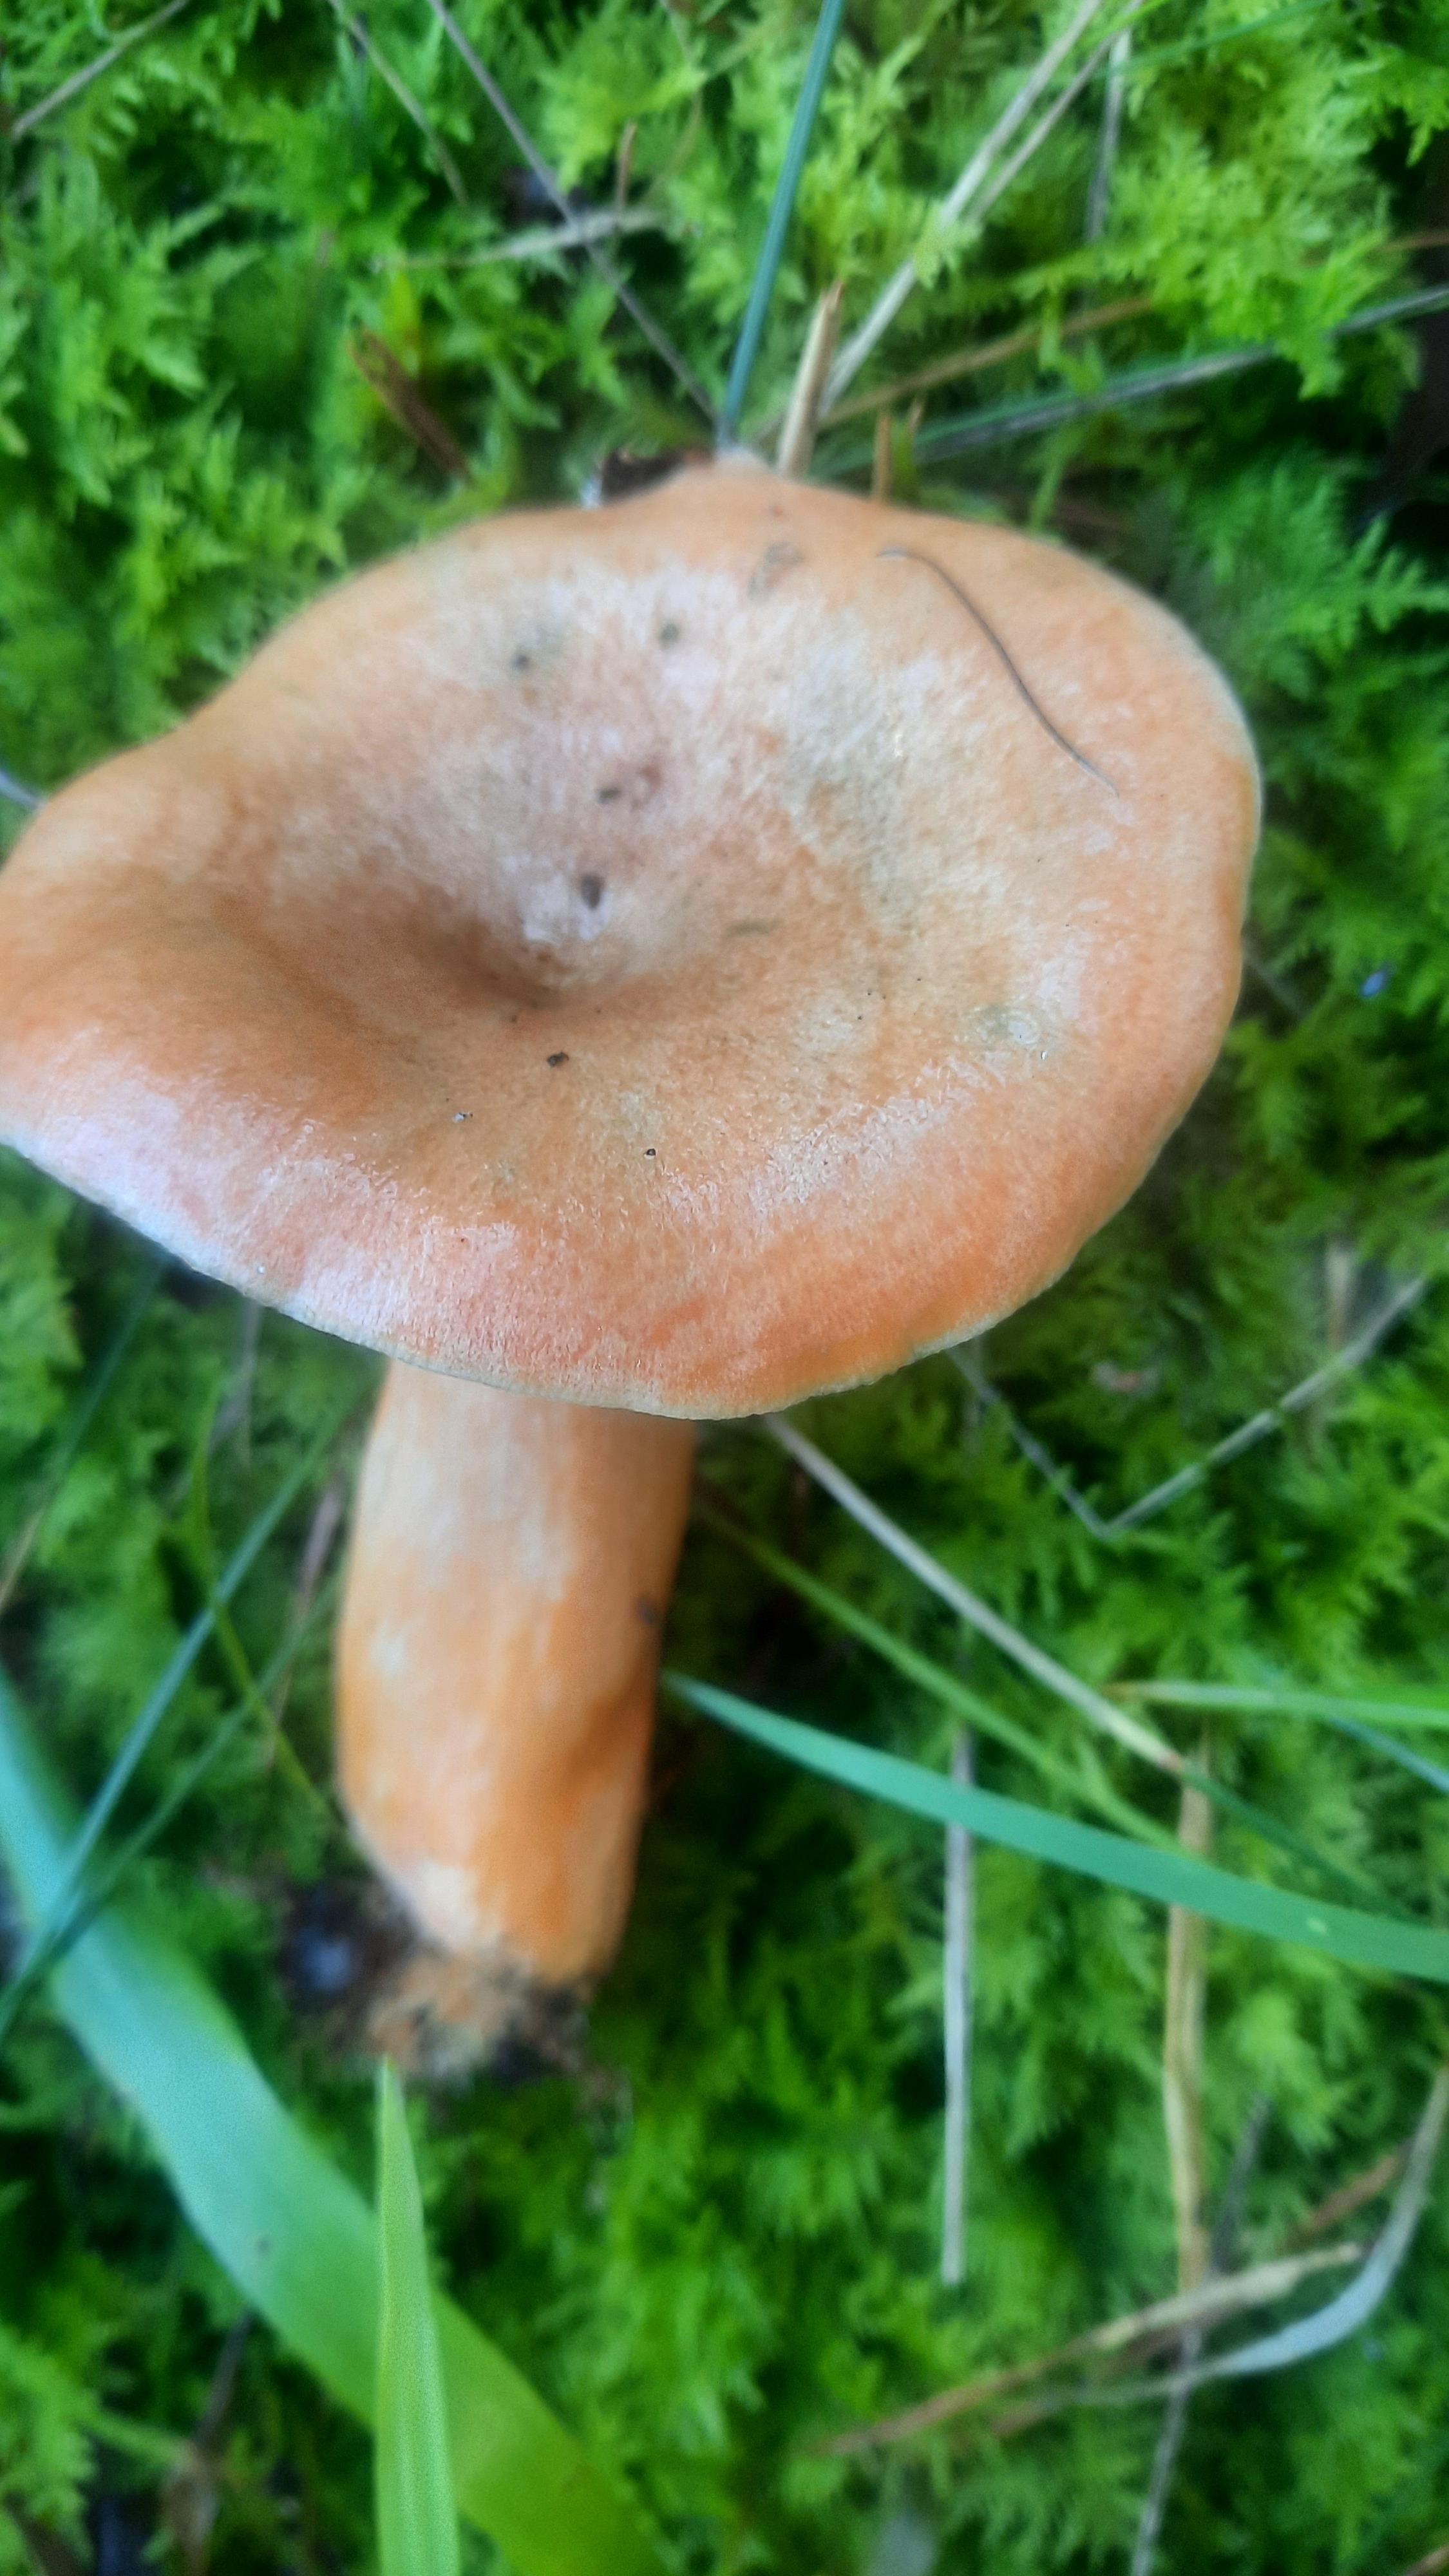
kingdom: Fungi
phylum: Basidiomycota
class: Agaricomycetes
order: Russulales
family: Russulaceae
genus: Lactarius
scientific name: Lactarius deterrimus
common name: gran-mælkehat
